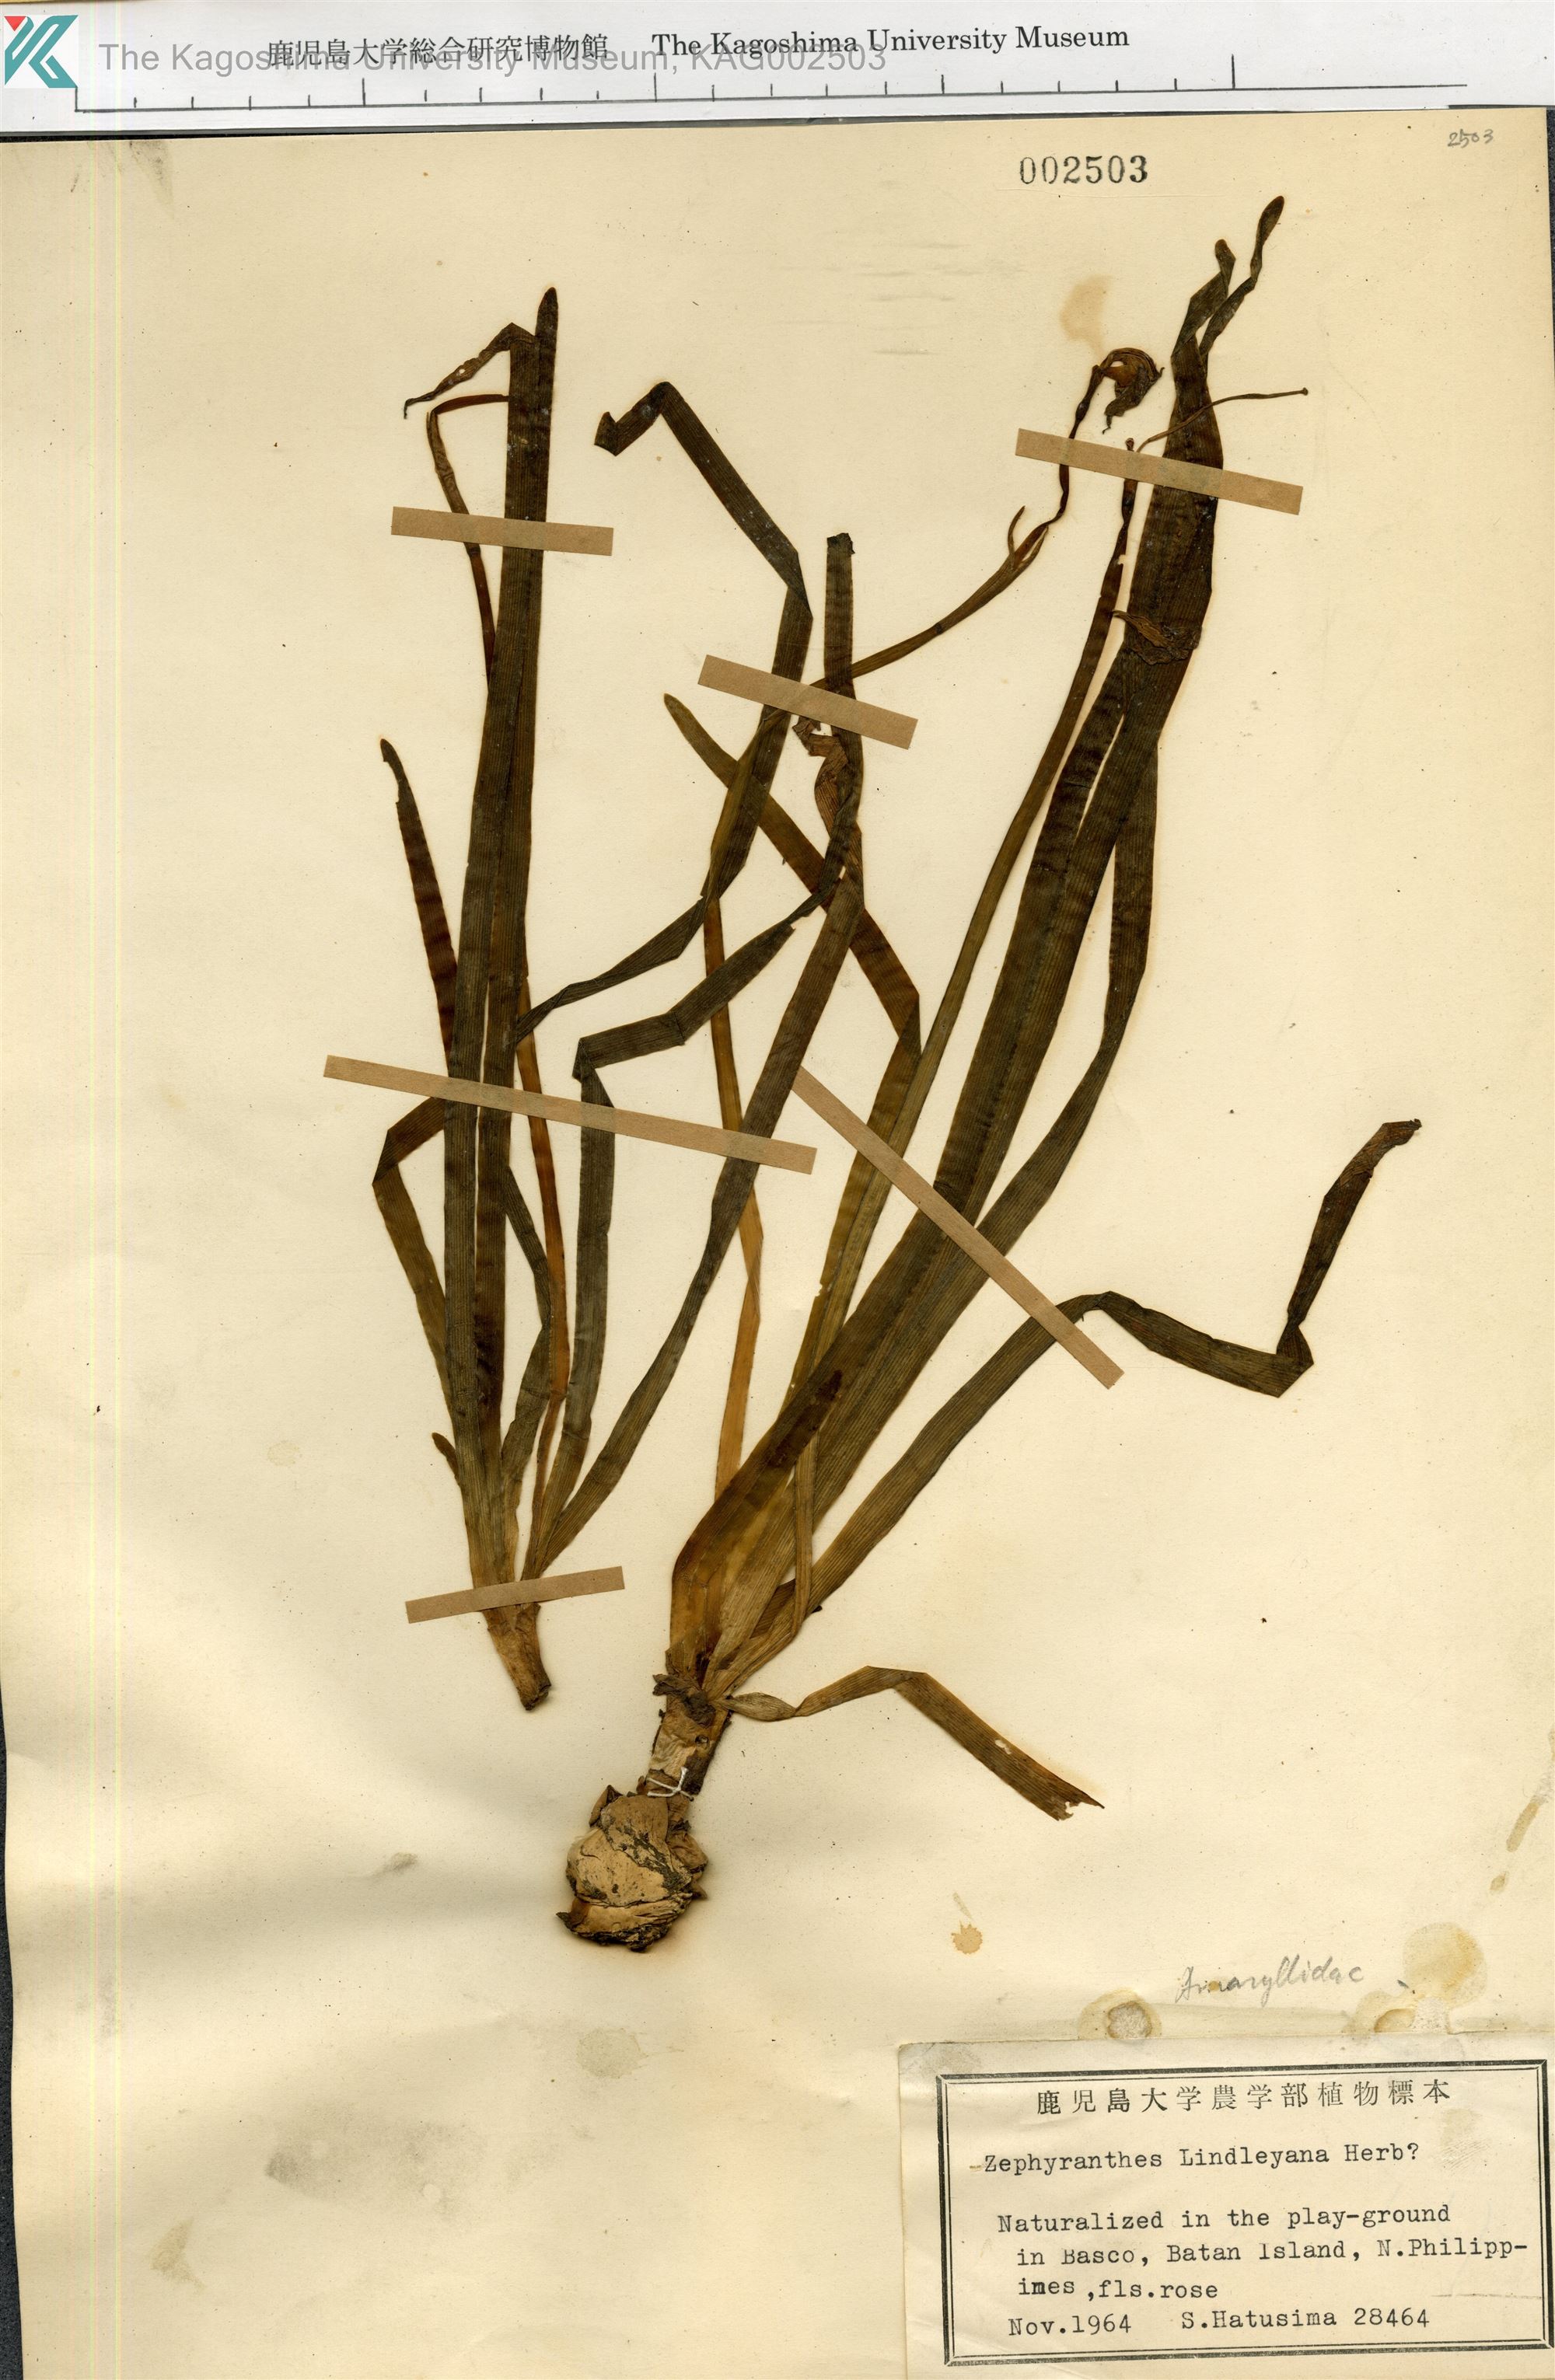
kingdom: Plantae
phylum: Tracheophyta
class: Liliopsida
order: Asparagales
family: Amaryllidaceae
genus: Zephyranthes
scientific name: Zephyranthes lindleyana
